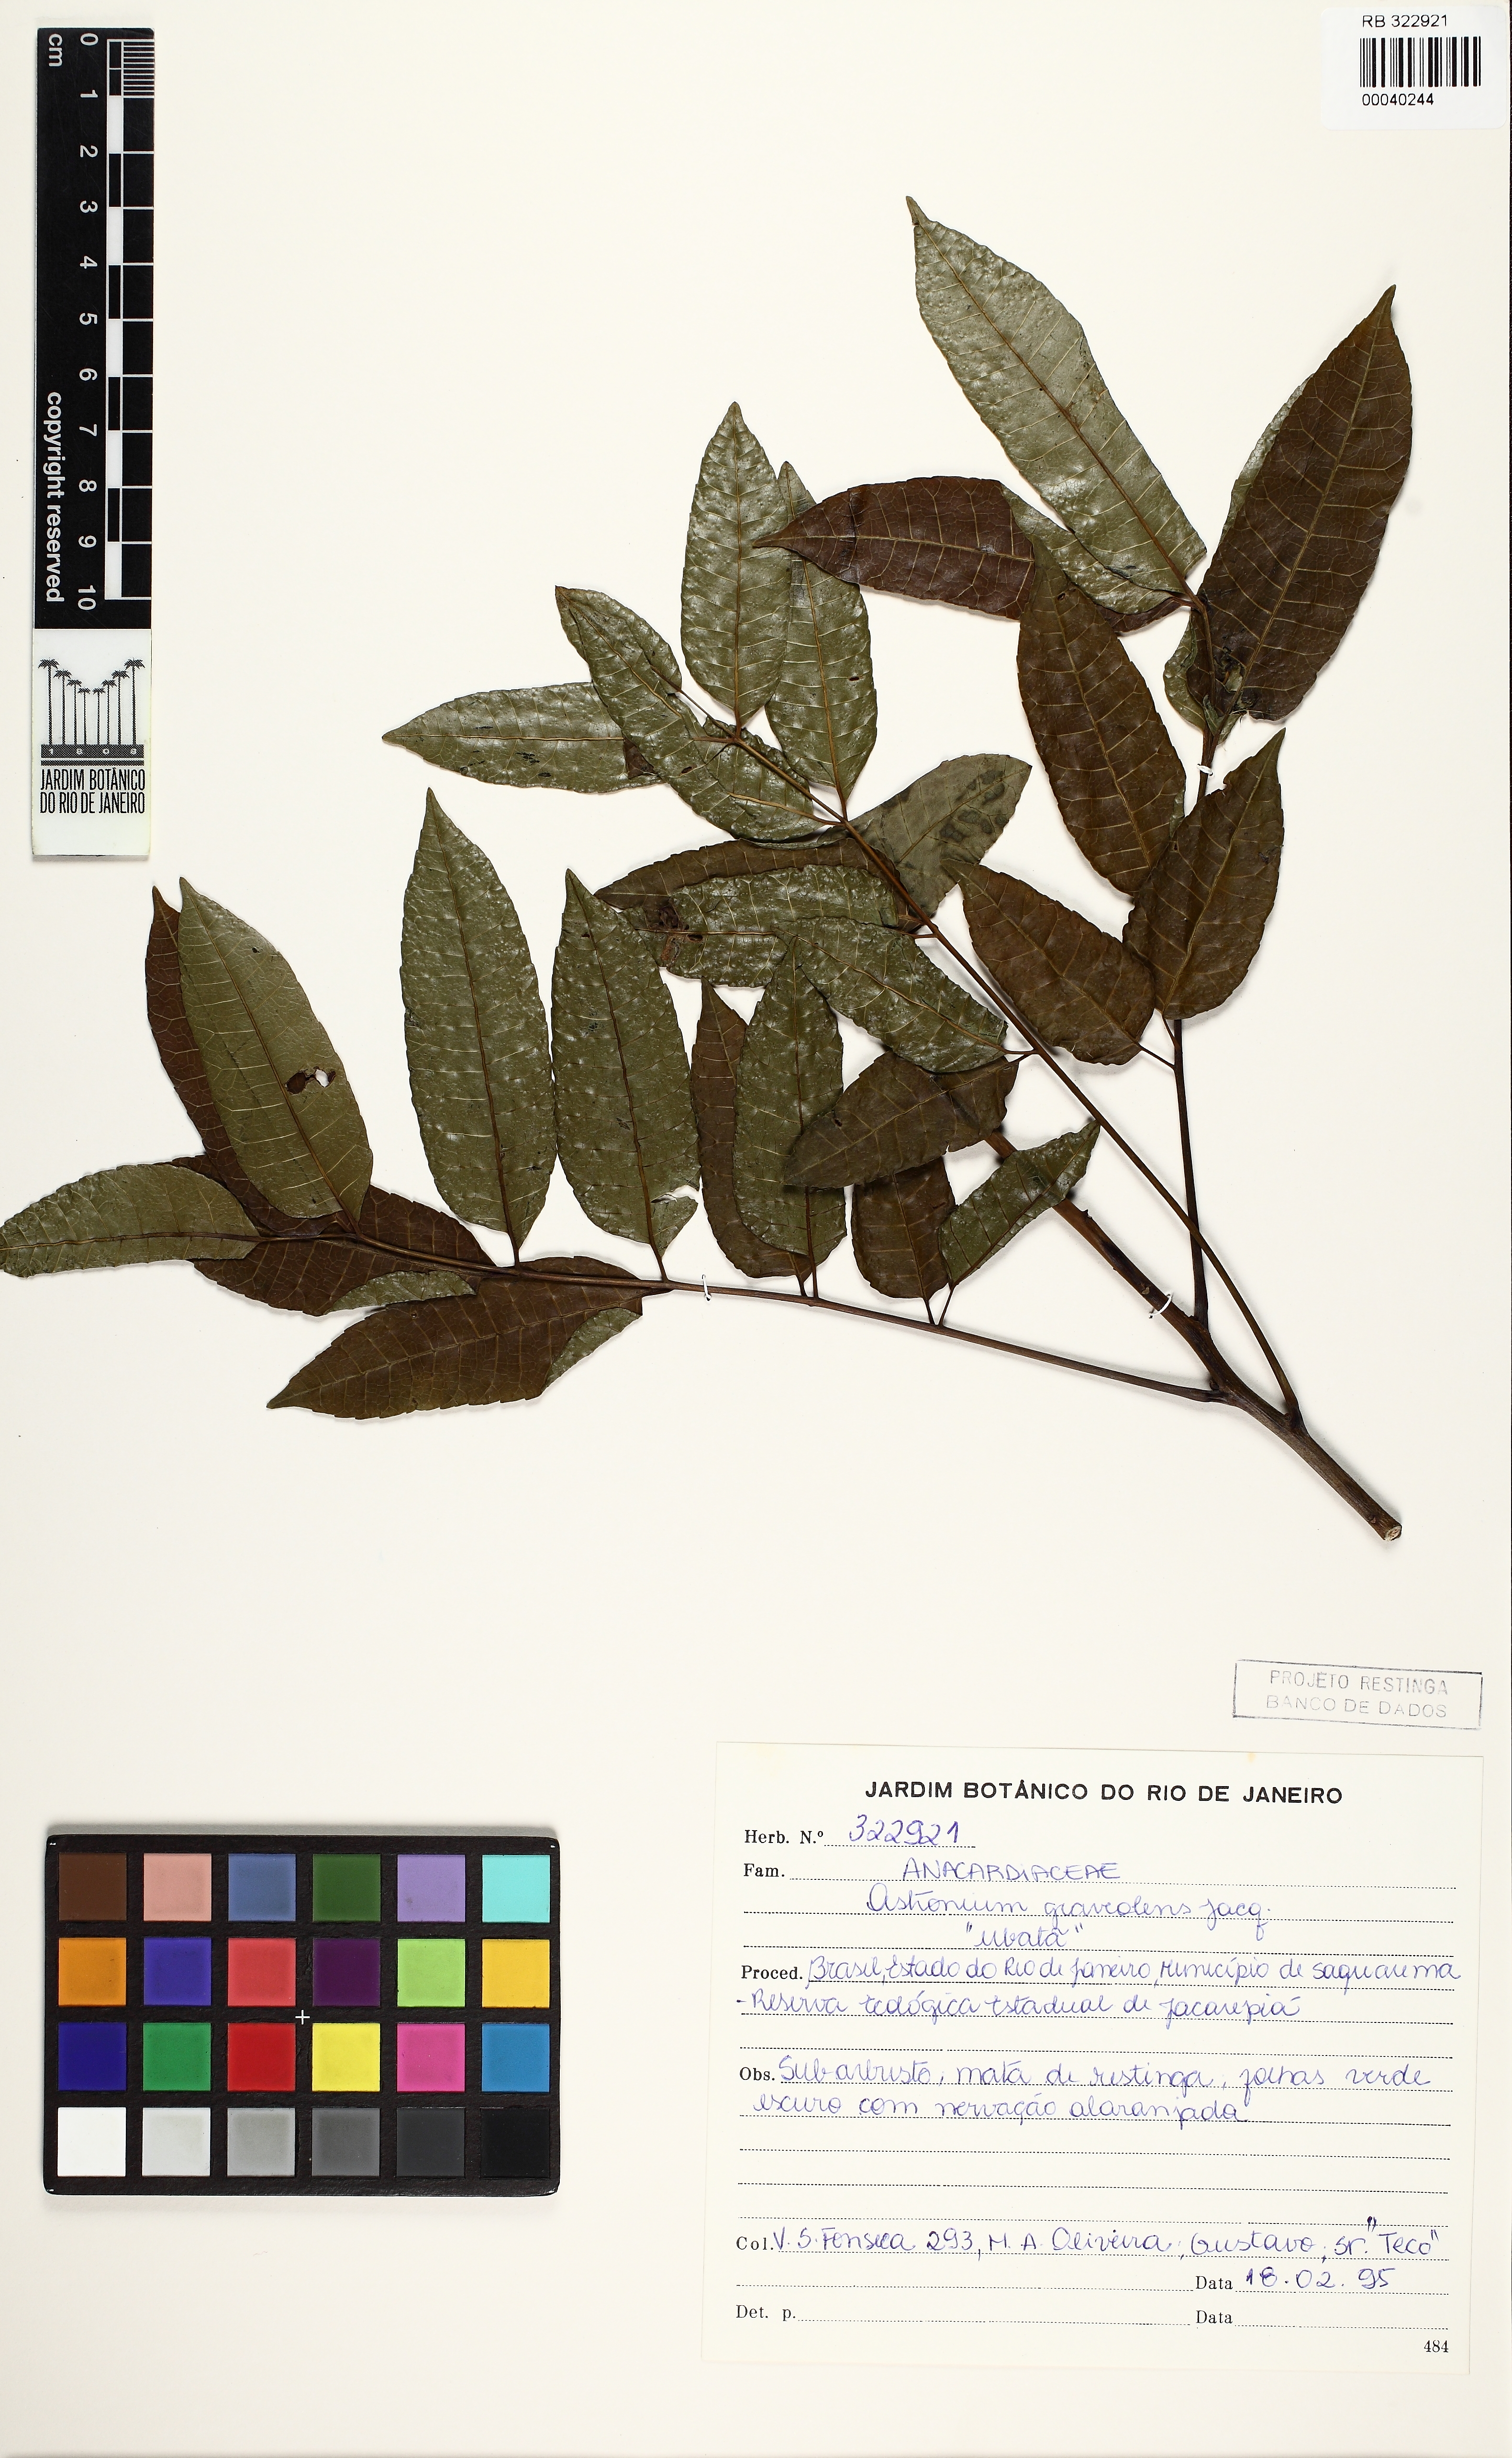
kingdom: Plantae
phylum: Tracheophyta
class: Magnoliopsida
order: Sapindales
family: Anacardiaceae
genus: Astronium
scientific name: Astronium graveolens
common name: Glassywood
